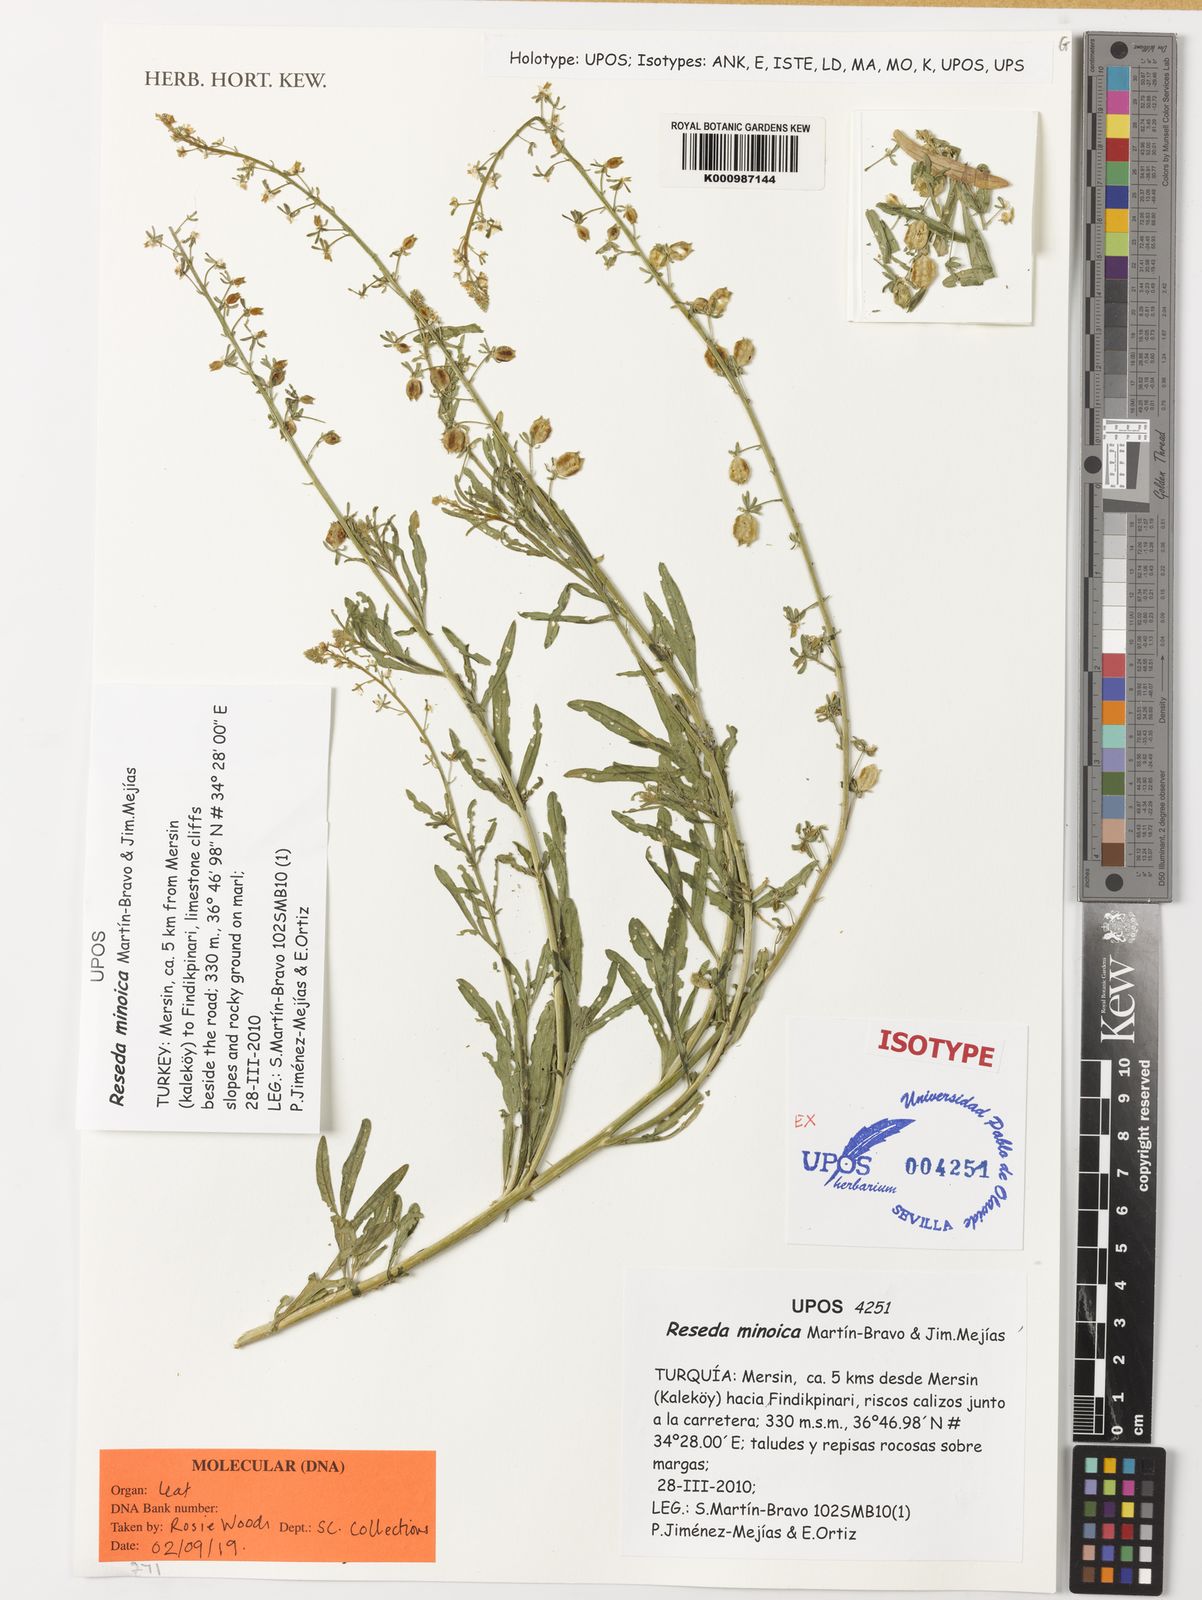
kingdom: Plantae
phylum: Tracheophyta
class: Magnoliopsida
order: Brassicales
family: Resedaceae
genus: Reseda
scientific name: Reseda
